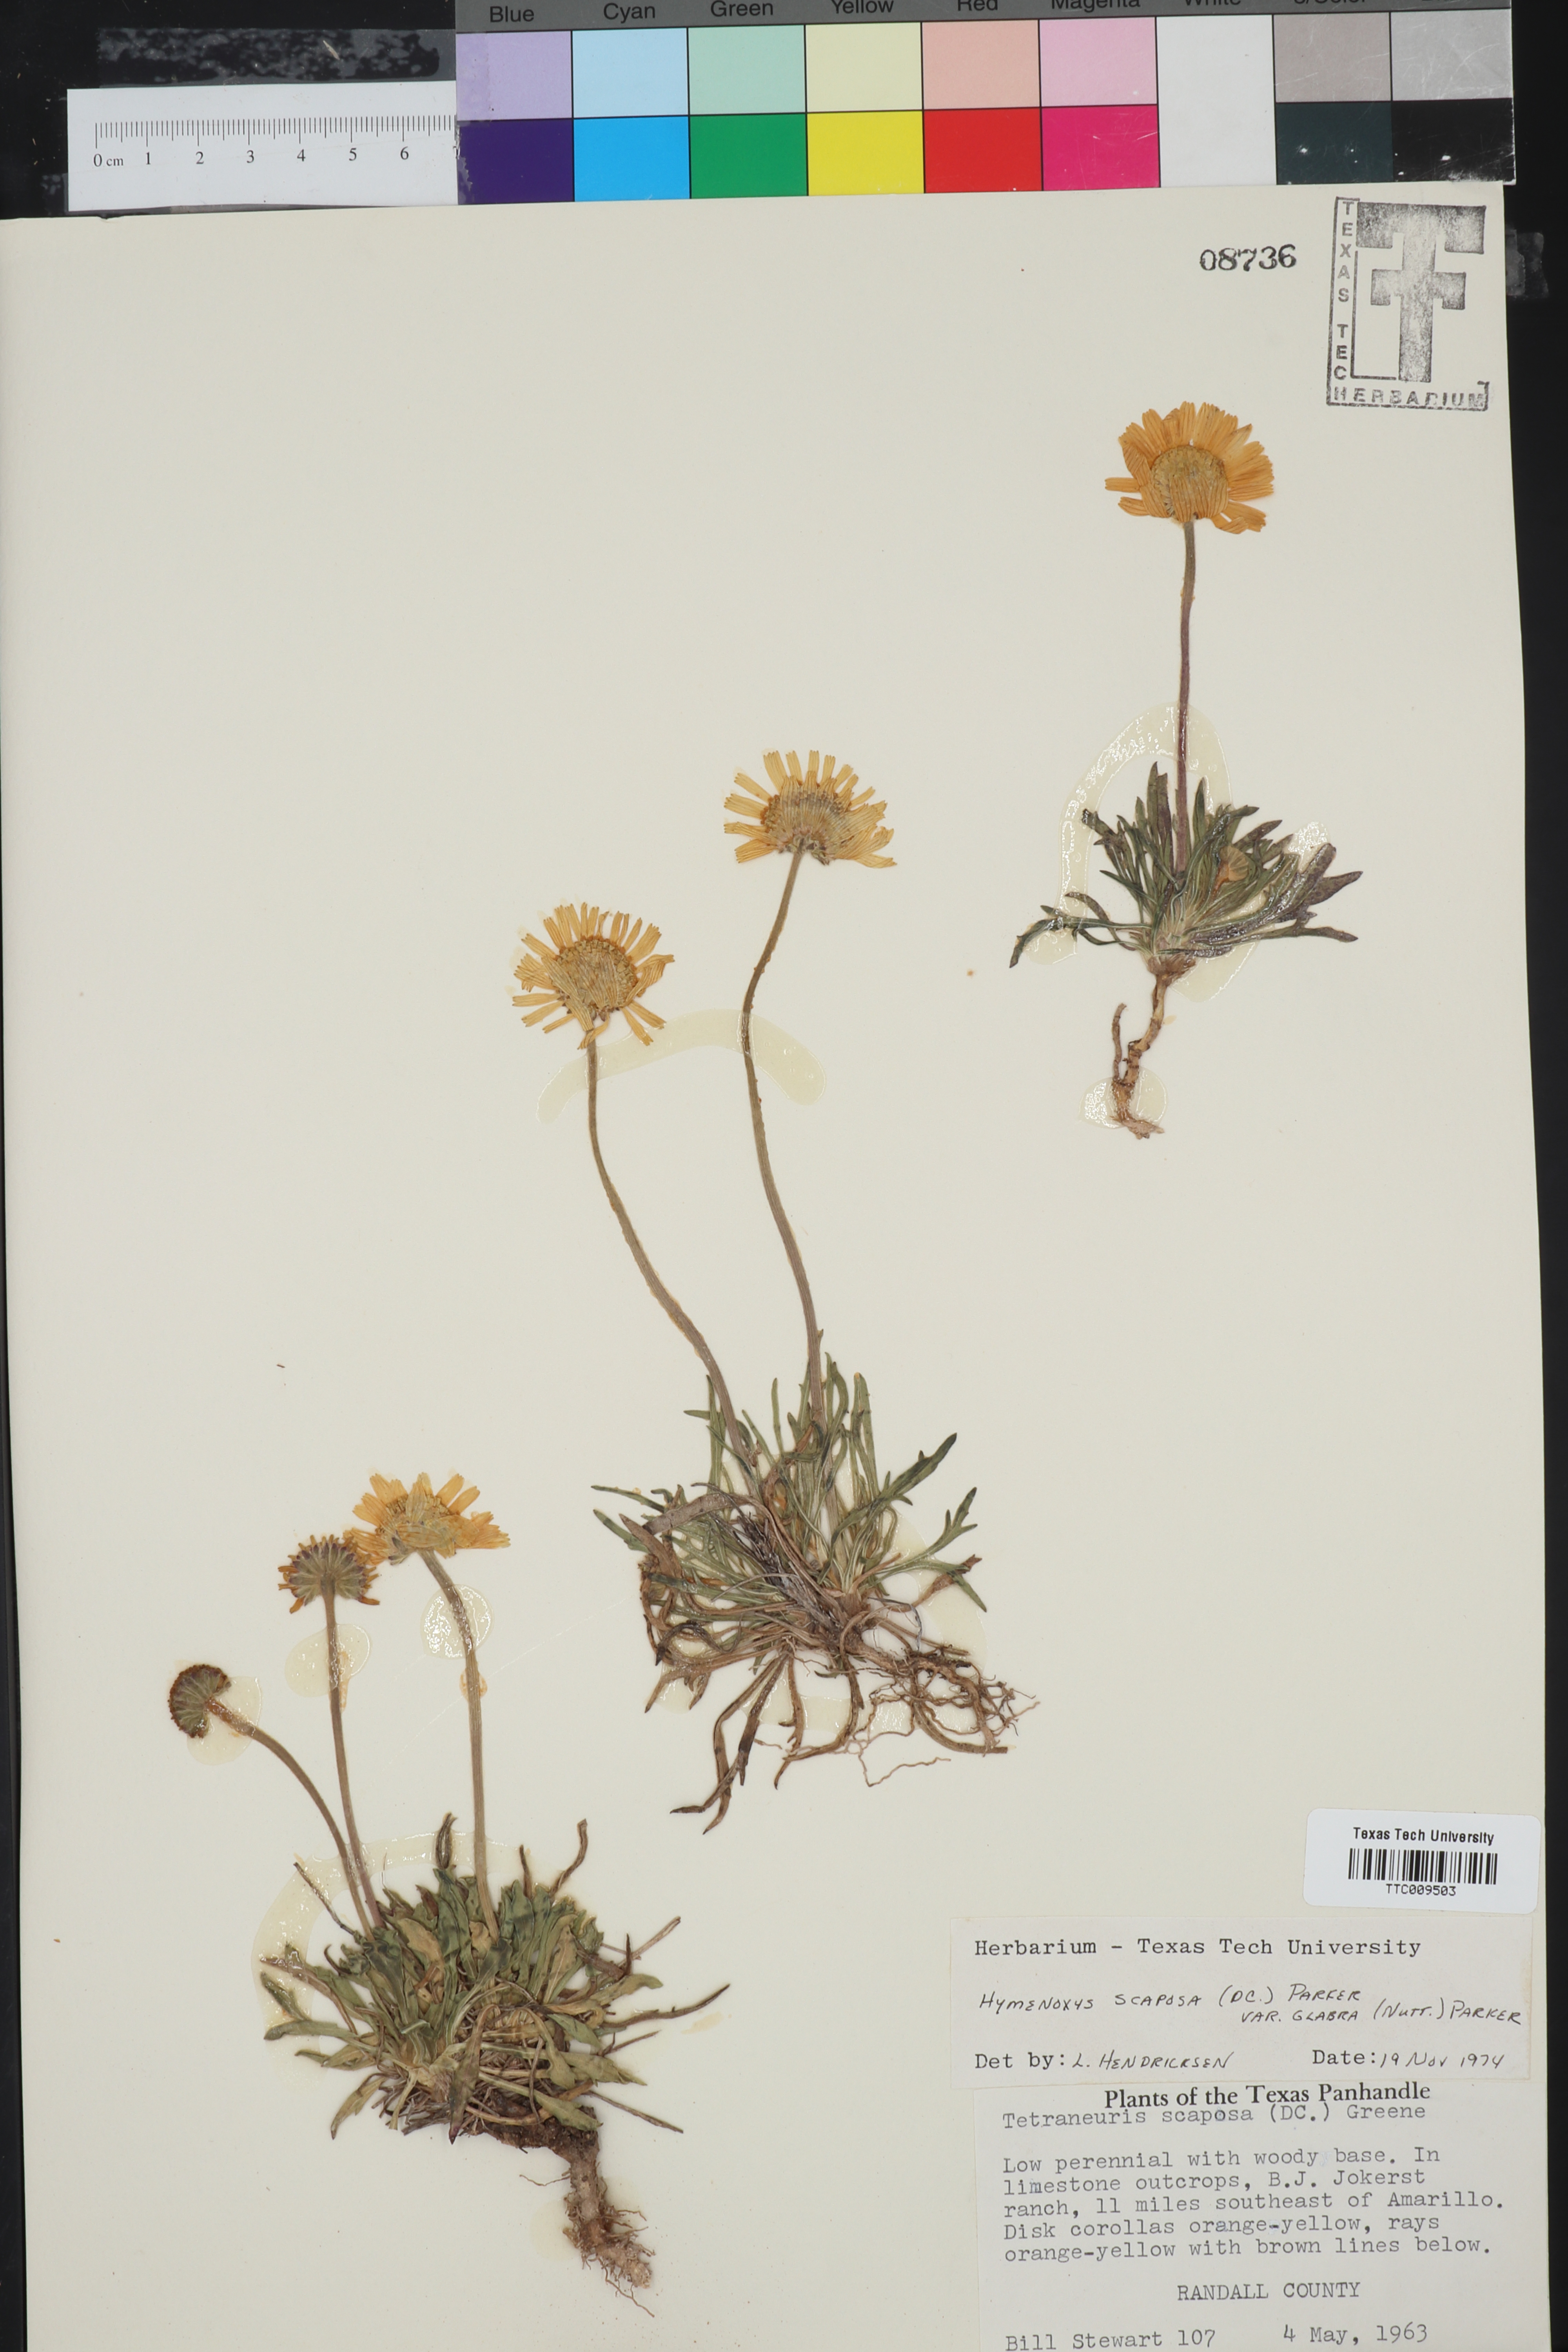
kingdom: Plantae
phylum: Tracheophyta
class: Magnoliopsida
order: Asterales
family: Asteraceae
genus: Tetraneuris
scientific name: Tetraneuris scaposa
